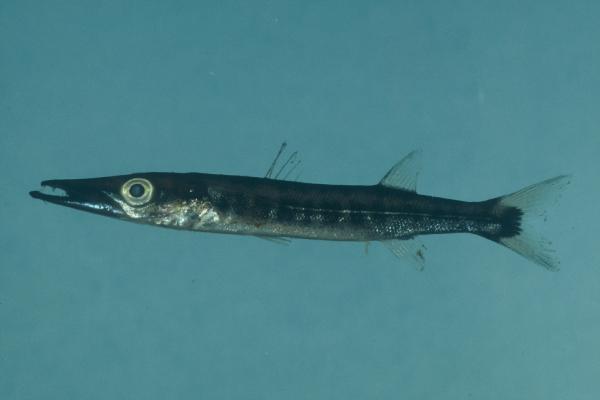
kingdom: Animalia
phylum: Chordata
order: Perciformes
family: Sphyraenidae
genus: Sphyraena
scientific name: Sphyraena forsteri
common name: Bigeye barracuda
